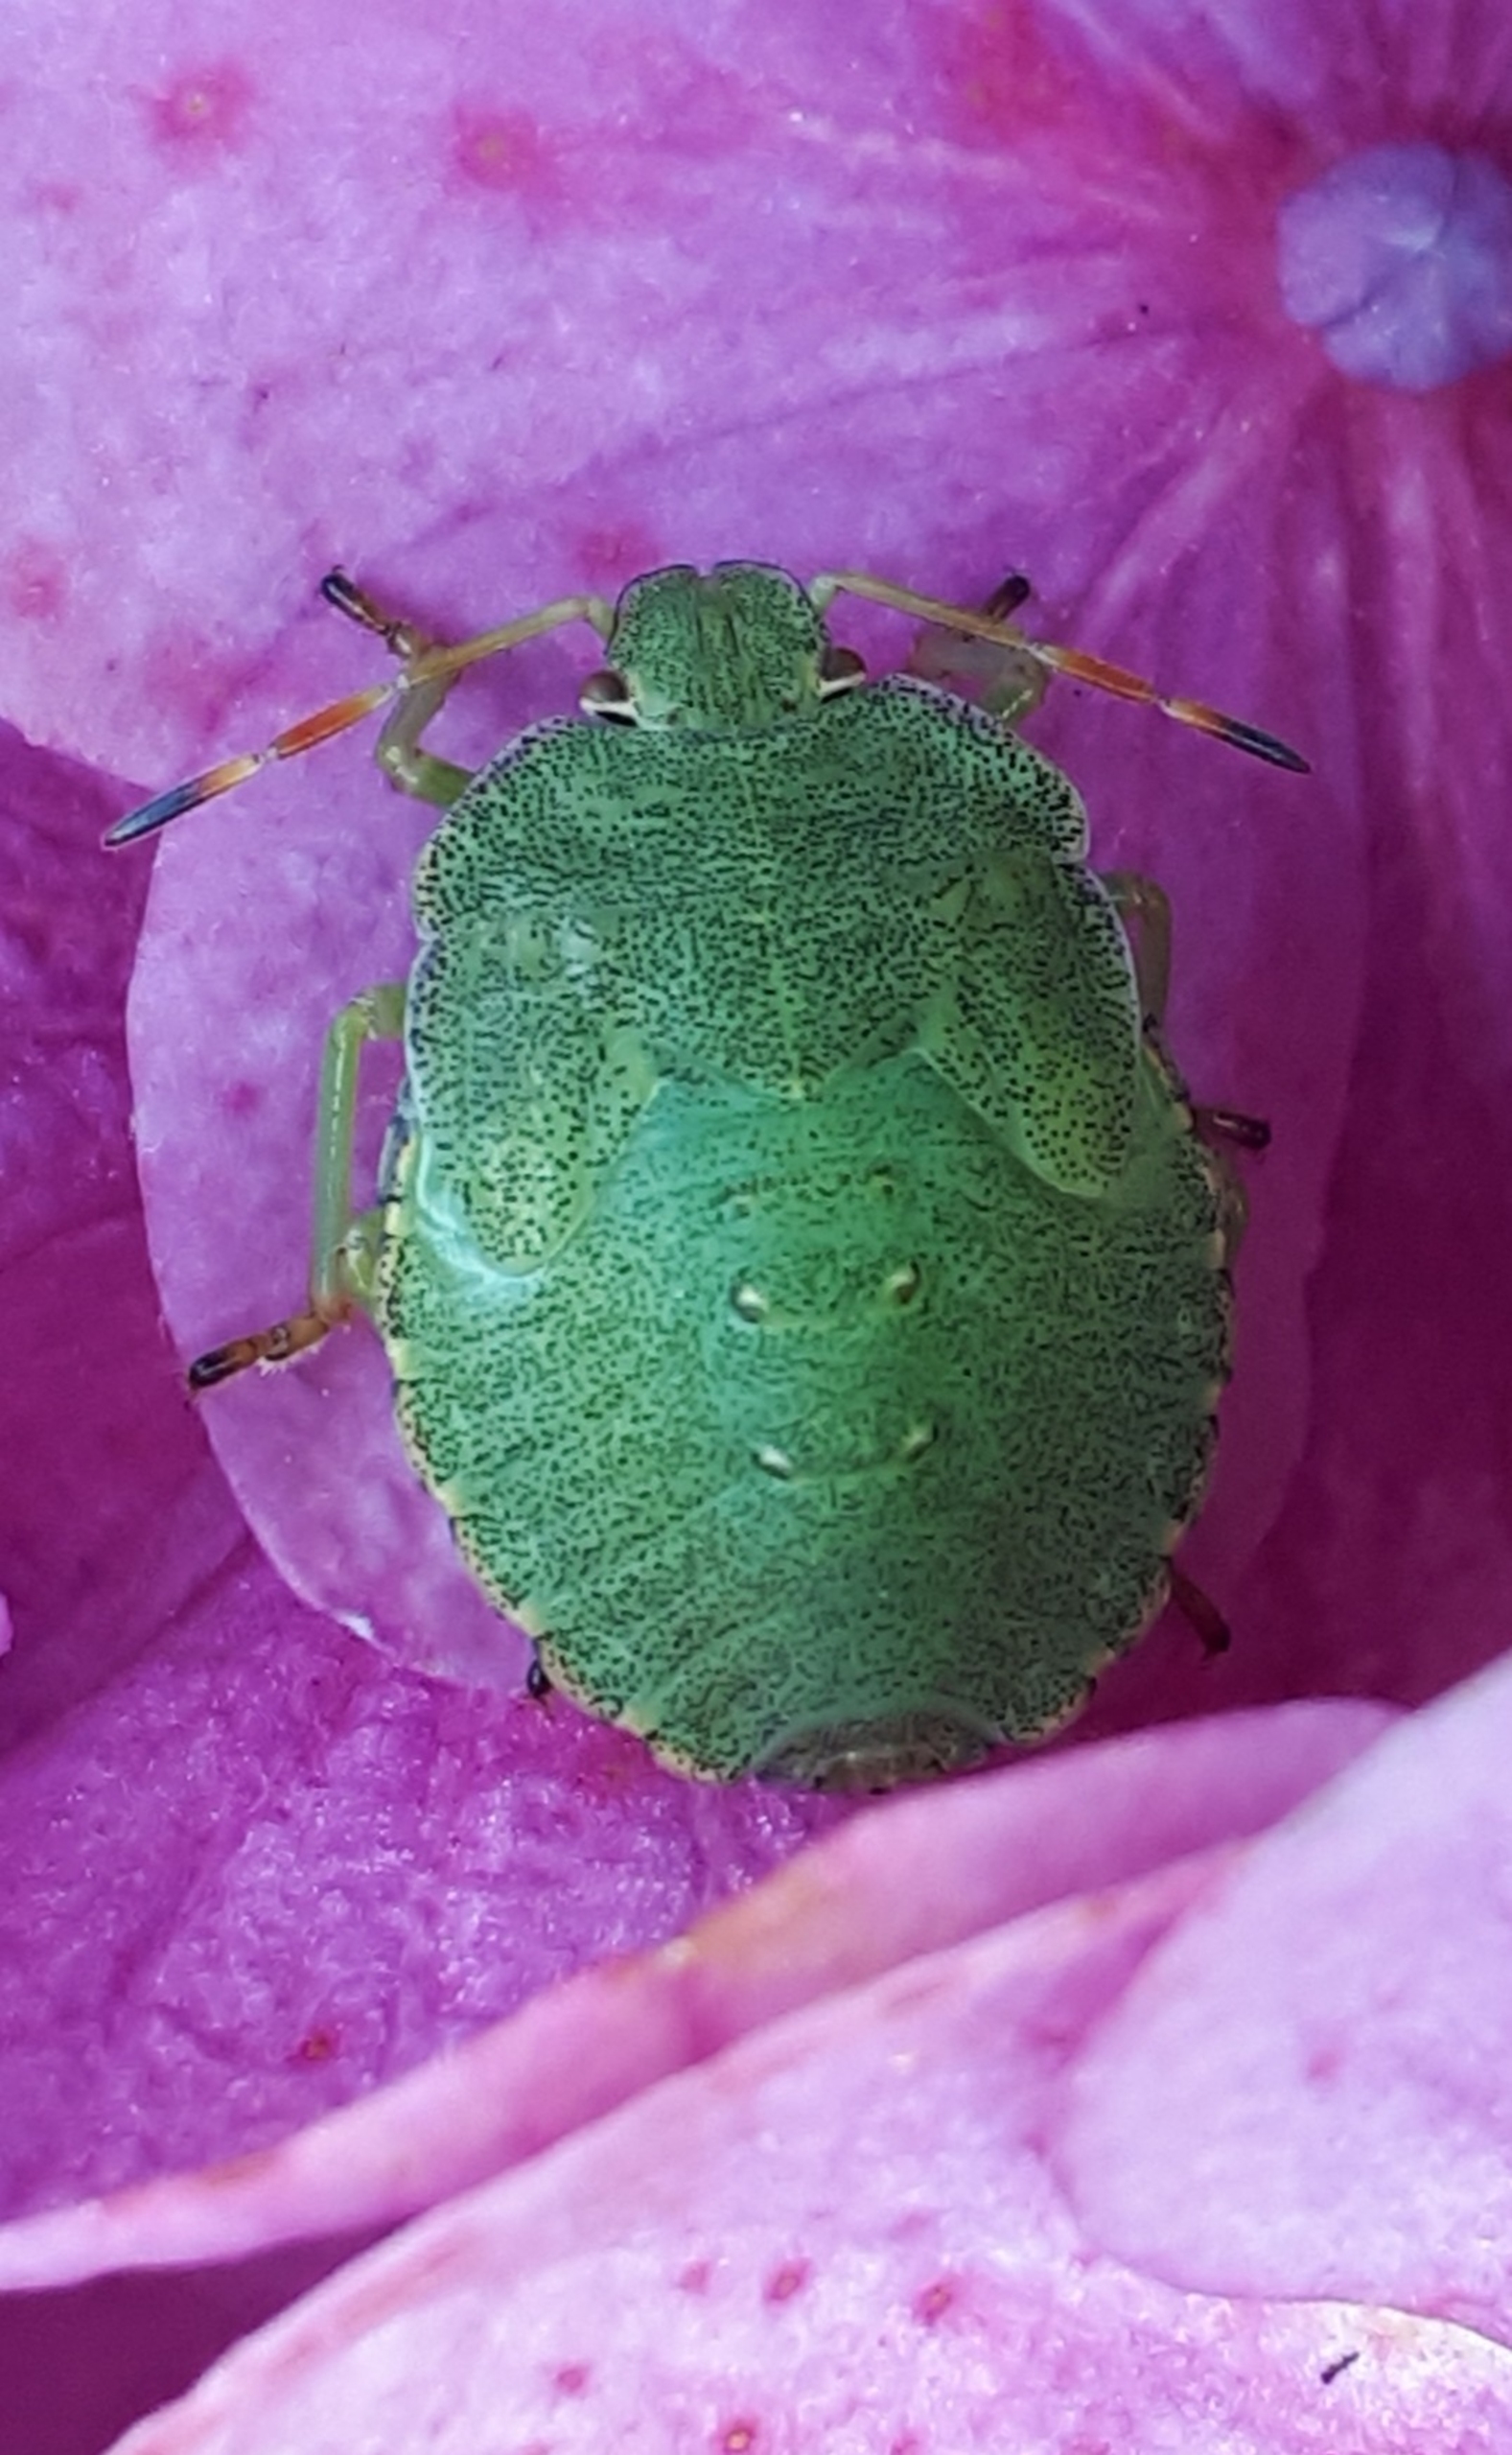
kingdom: Animalia
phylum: Arthropoda
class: Insecta
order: Hemiptera
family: Pentatomidae
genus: Palomena
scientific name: Palomena prasina
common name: Grøn bredtæge
